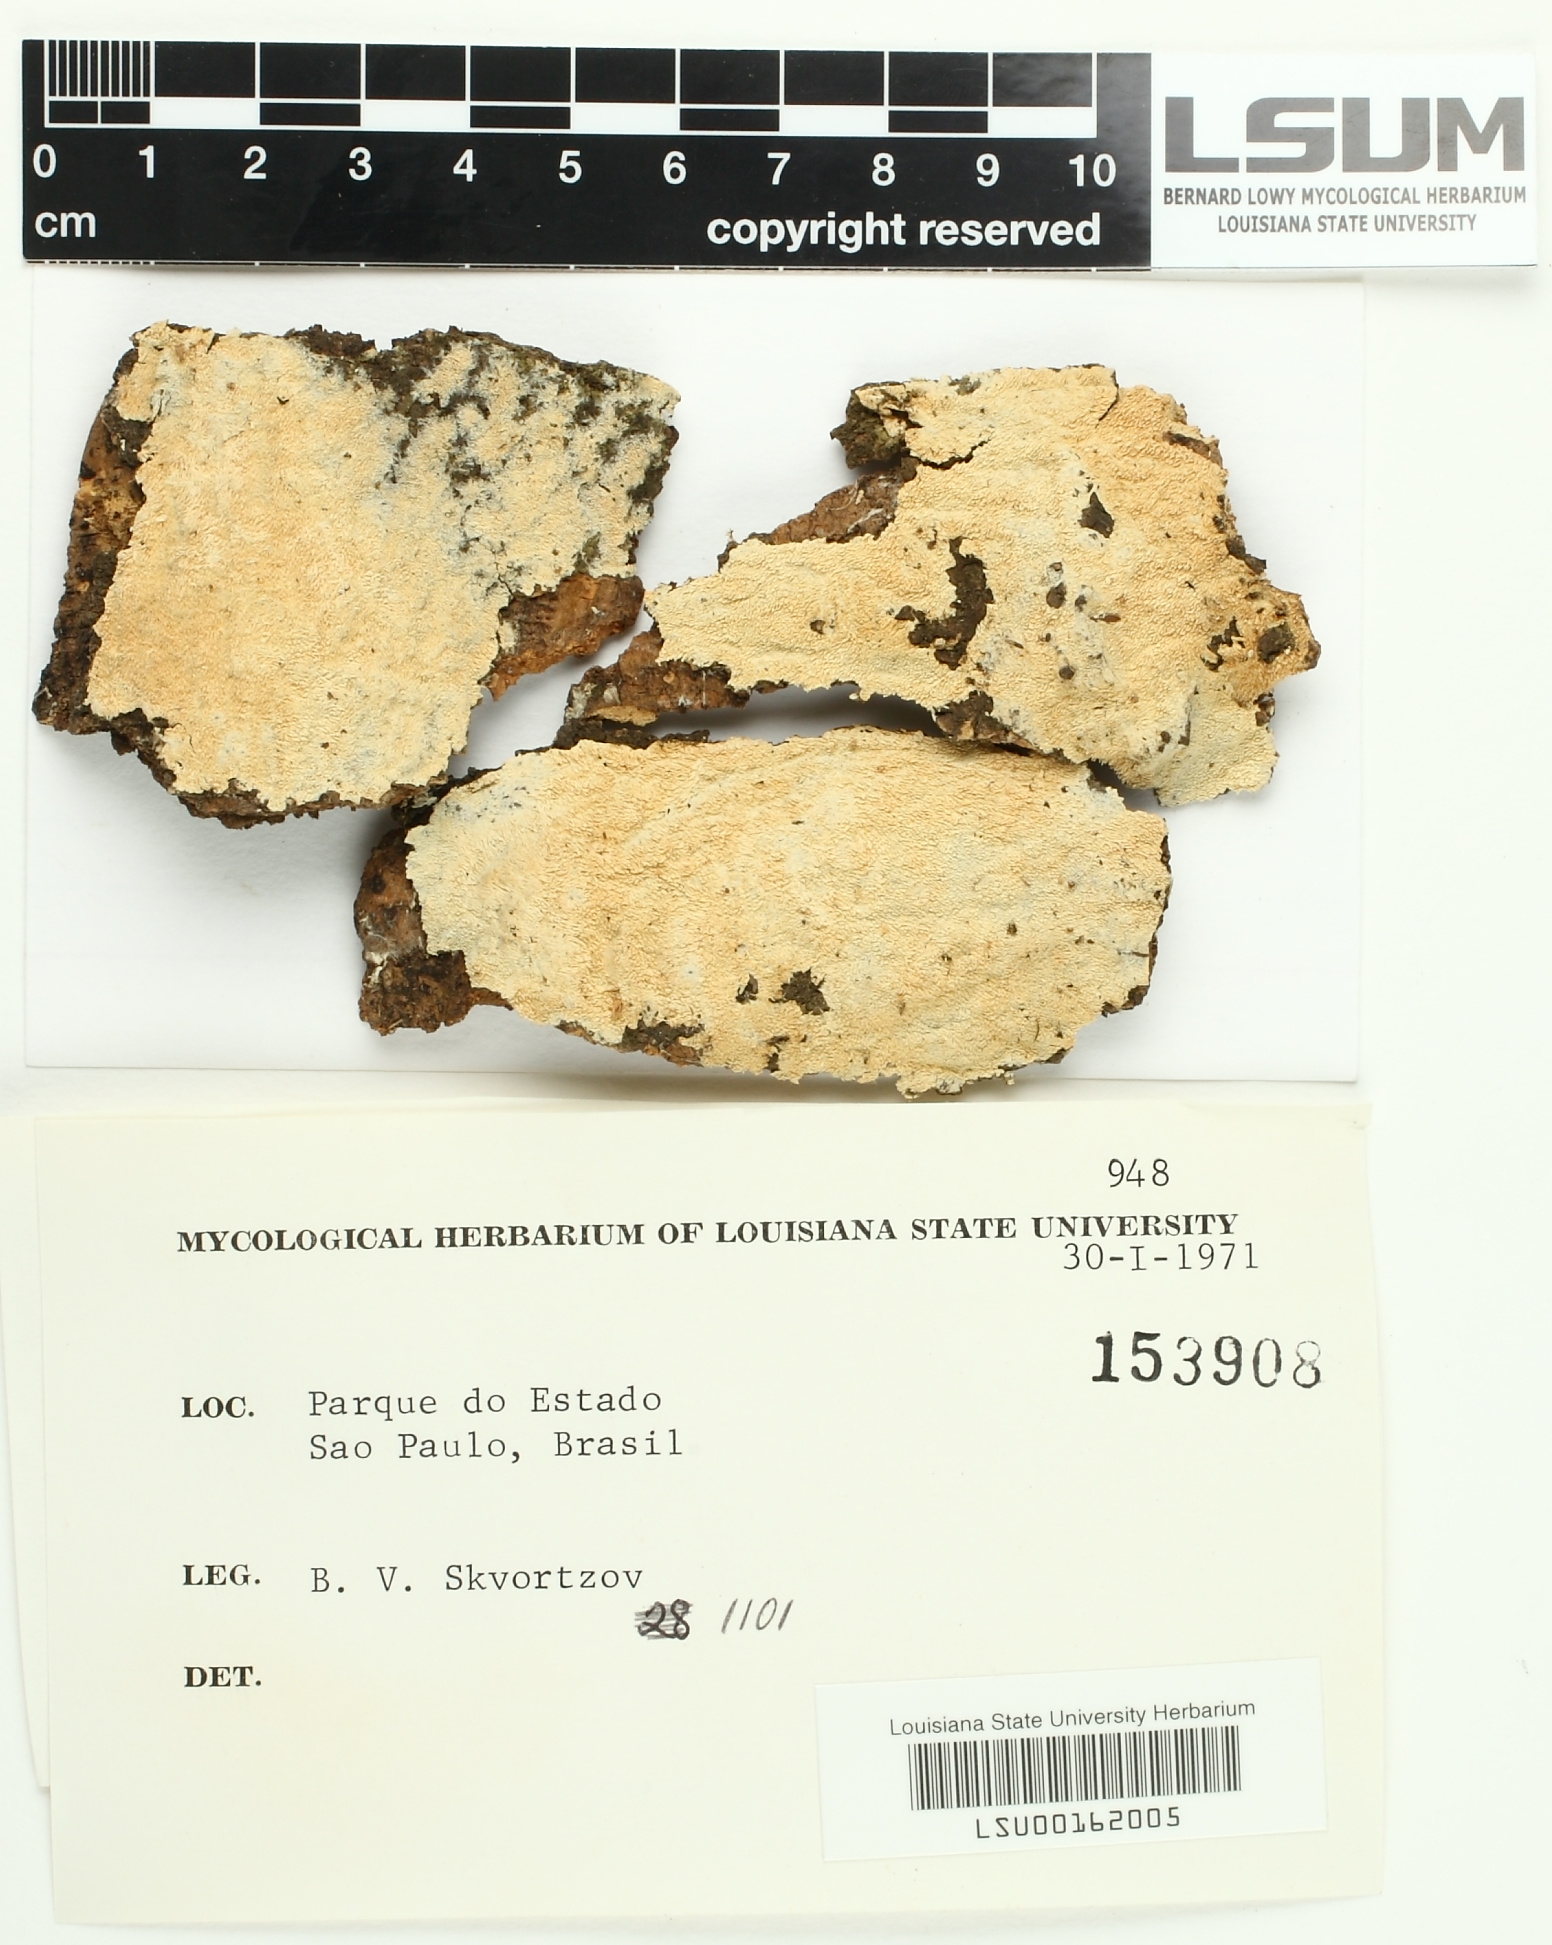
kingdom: Fungi
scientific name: Fungi
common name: Fungi
